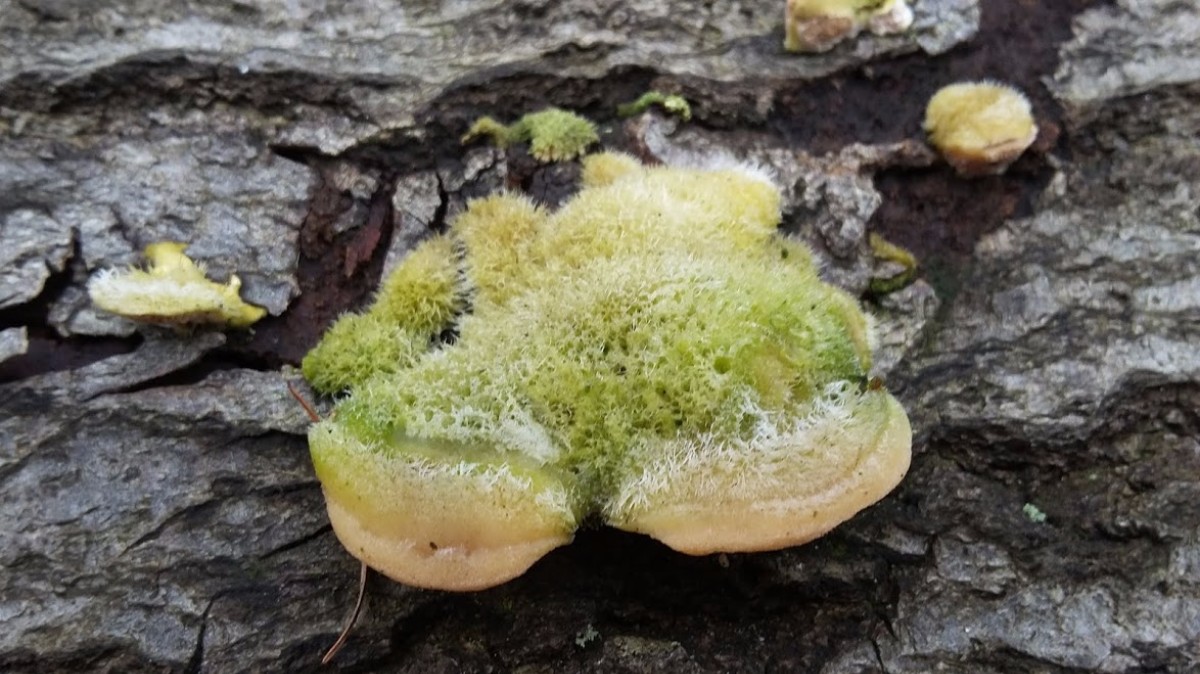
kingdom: Fungi
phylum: Basidiomycota
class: Agaricomycetes
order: Polyporales
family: Polyporaceae
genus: Trametes
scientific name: Trametes hirsuta
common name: håret læderporesvamp
